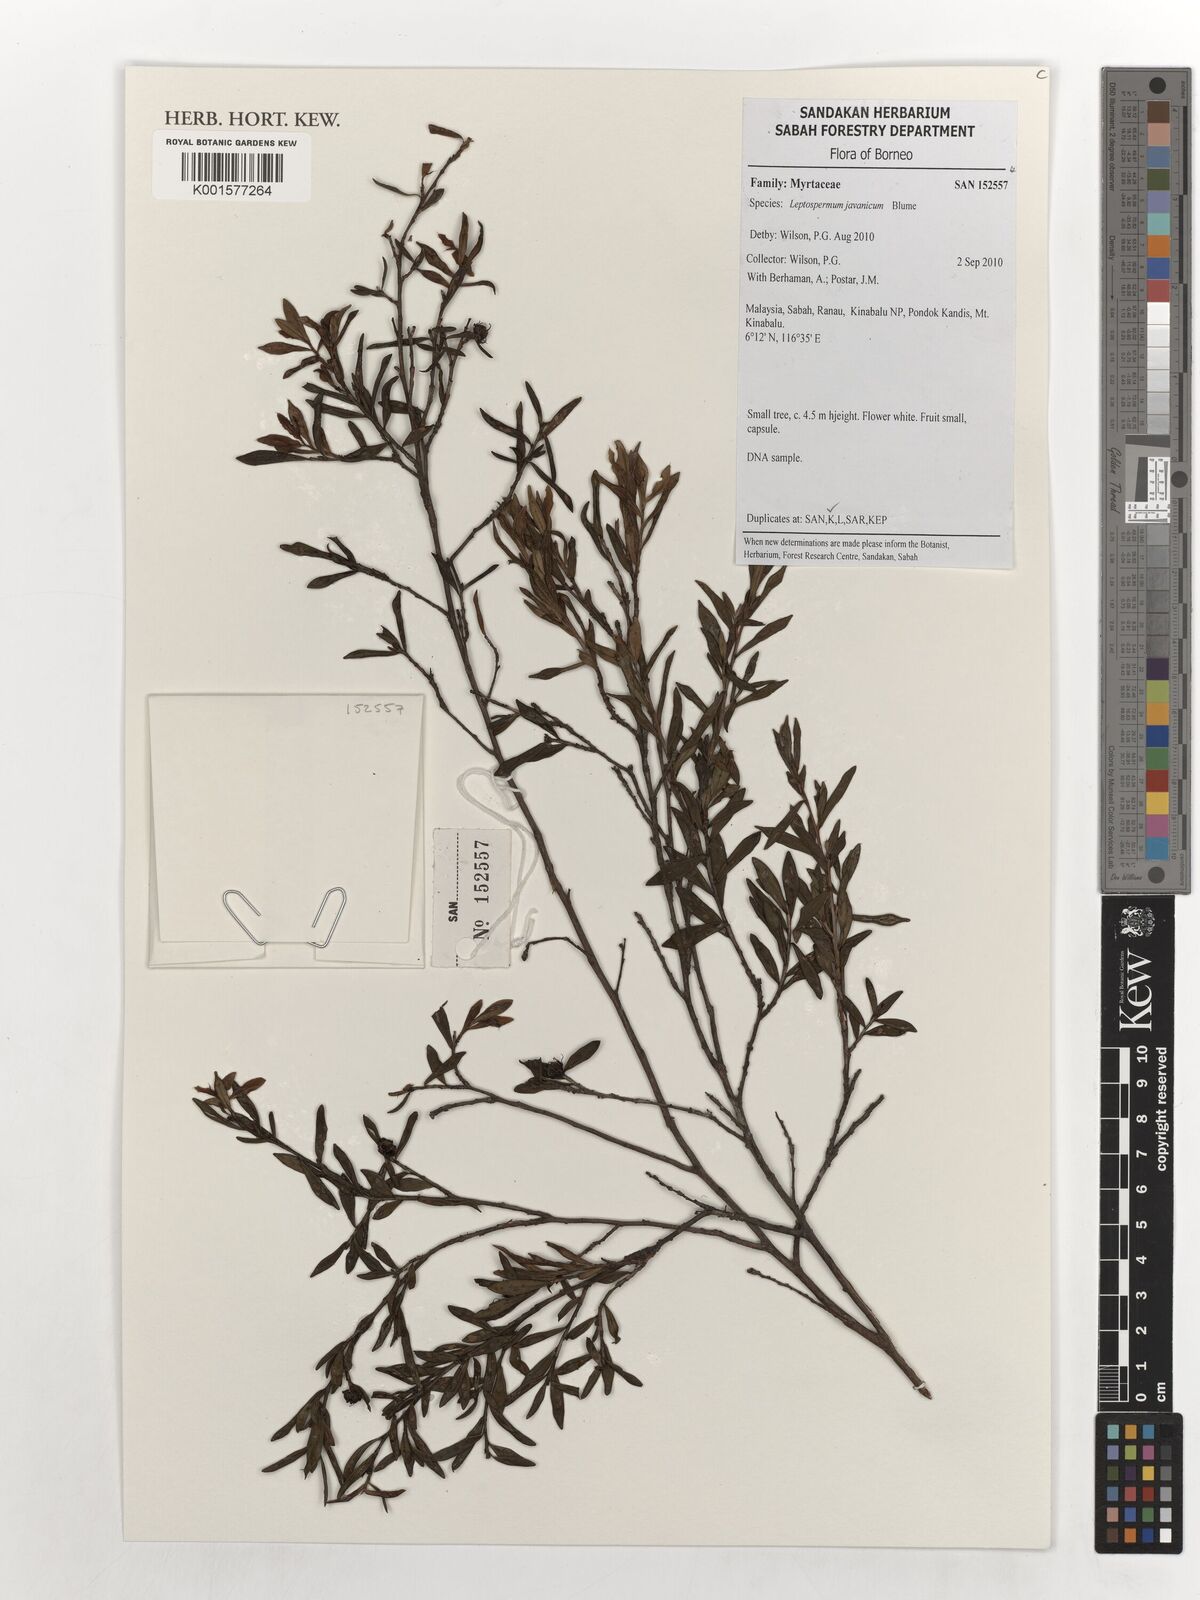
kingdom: Plantae
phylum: Tracheophyta
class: Magnoliopsida
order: Myrtales
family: Myrtaceae
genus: Leptospermum
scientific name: Leptospermum javanicum
